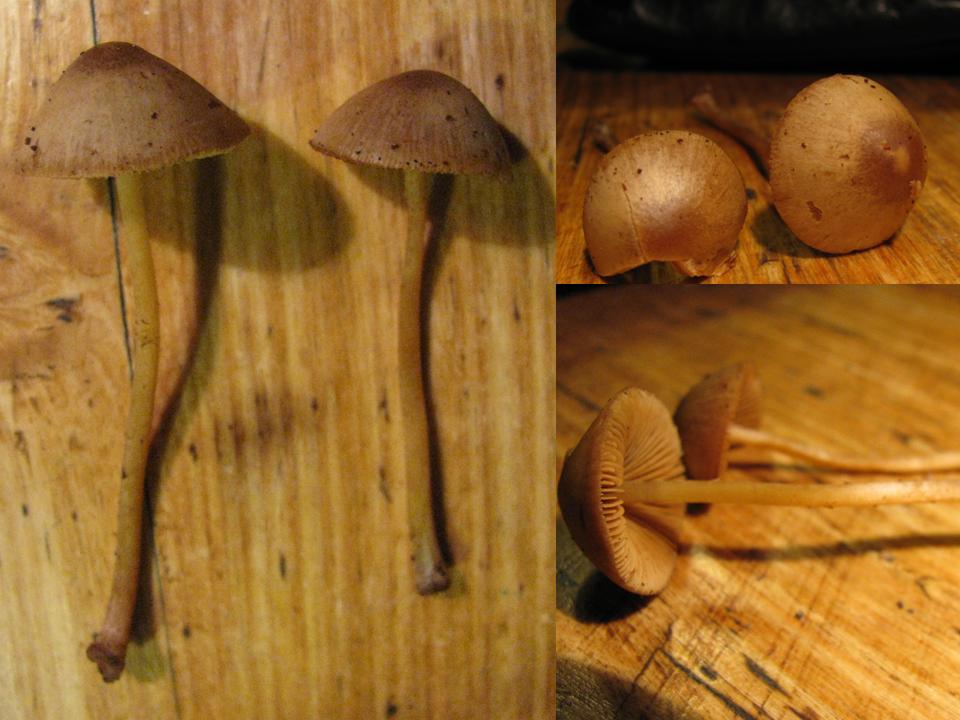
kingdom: Fungi
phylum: Basidiomycota
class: Agaricomycetes
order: Agaricales
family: Bolbitiaceae
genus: Conocybe
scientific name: Conocybe subovalis
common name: hvælvet keglehat
